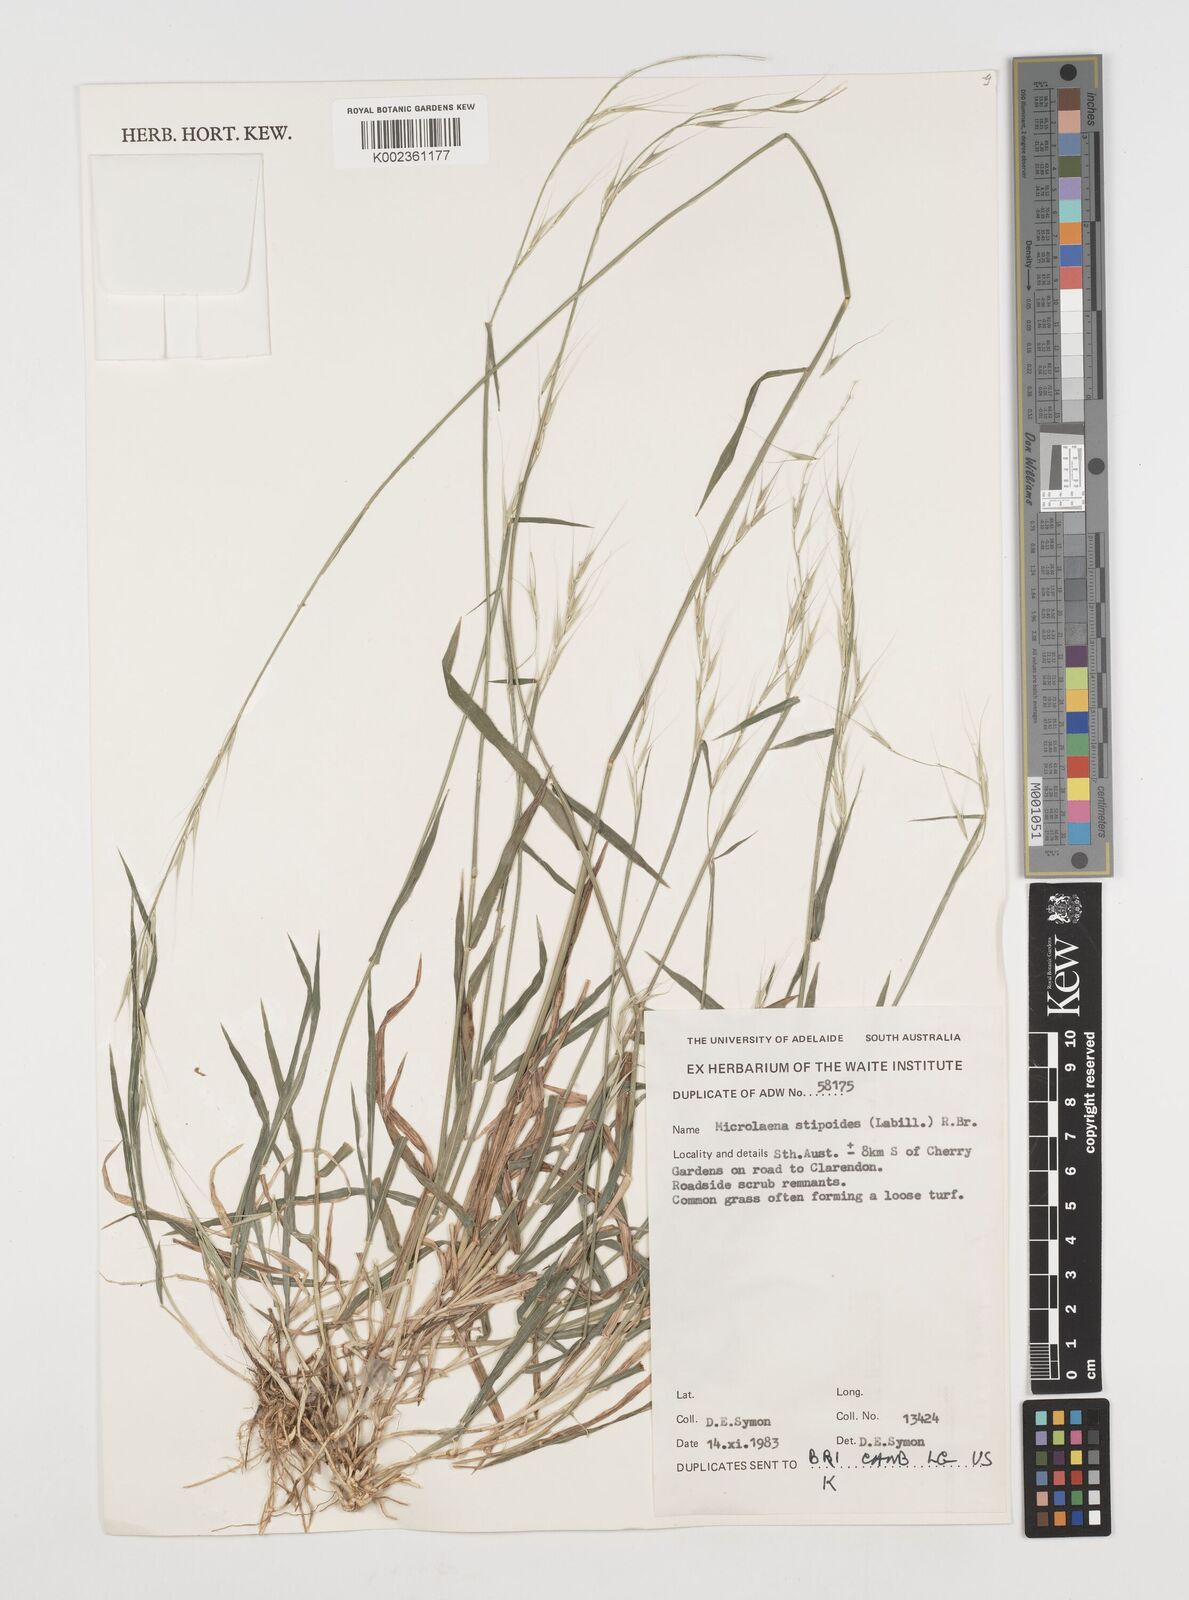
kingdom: Plantae
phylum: Tracheophyta
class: Liliopsida
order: Poales
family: Poaceae
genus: Microlaena
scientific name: Microlaena stipoides
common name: Meadow ricegrass
